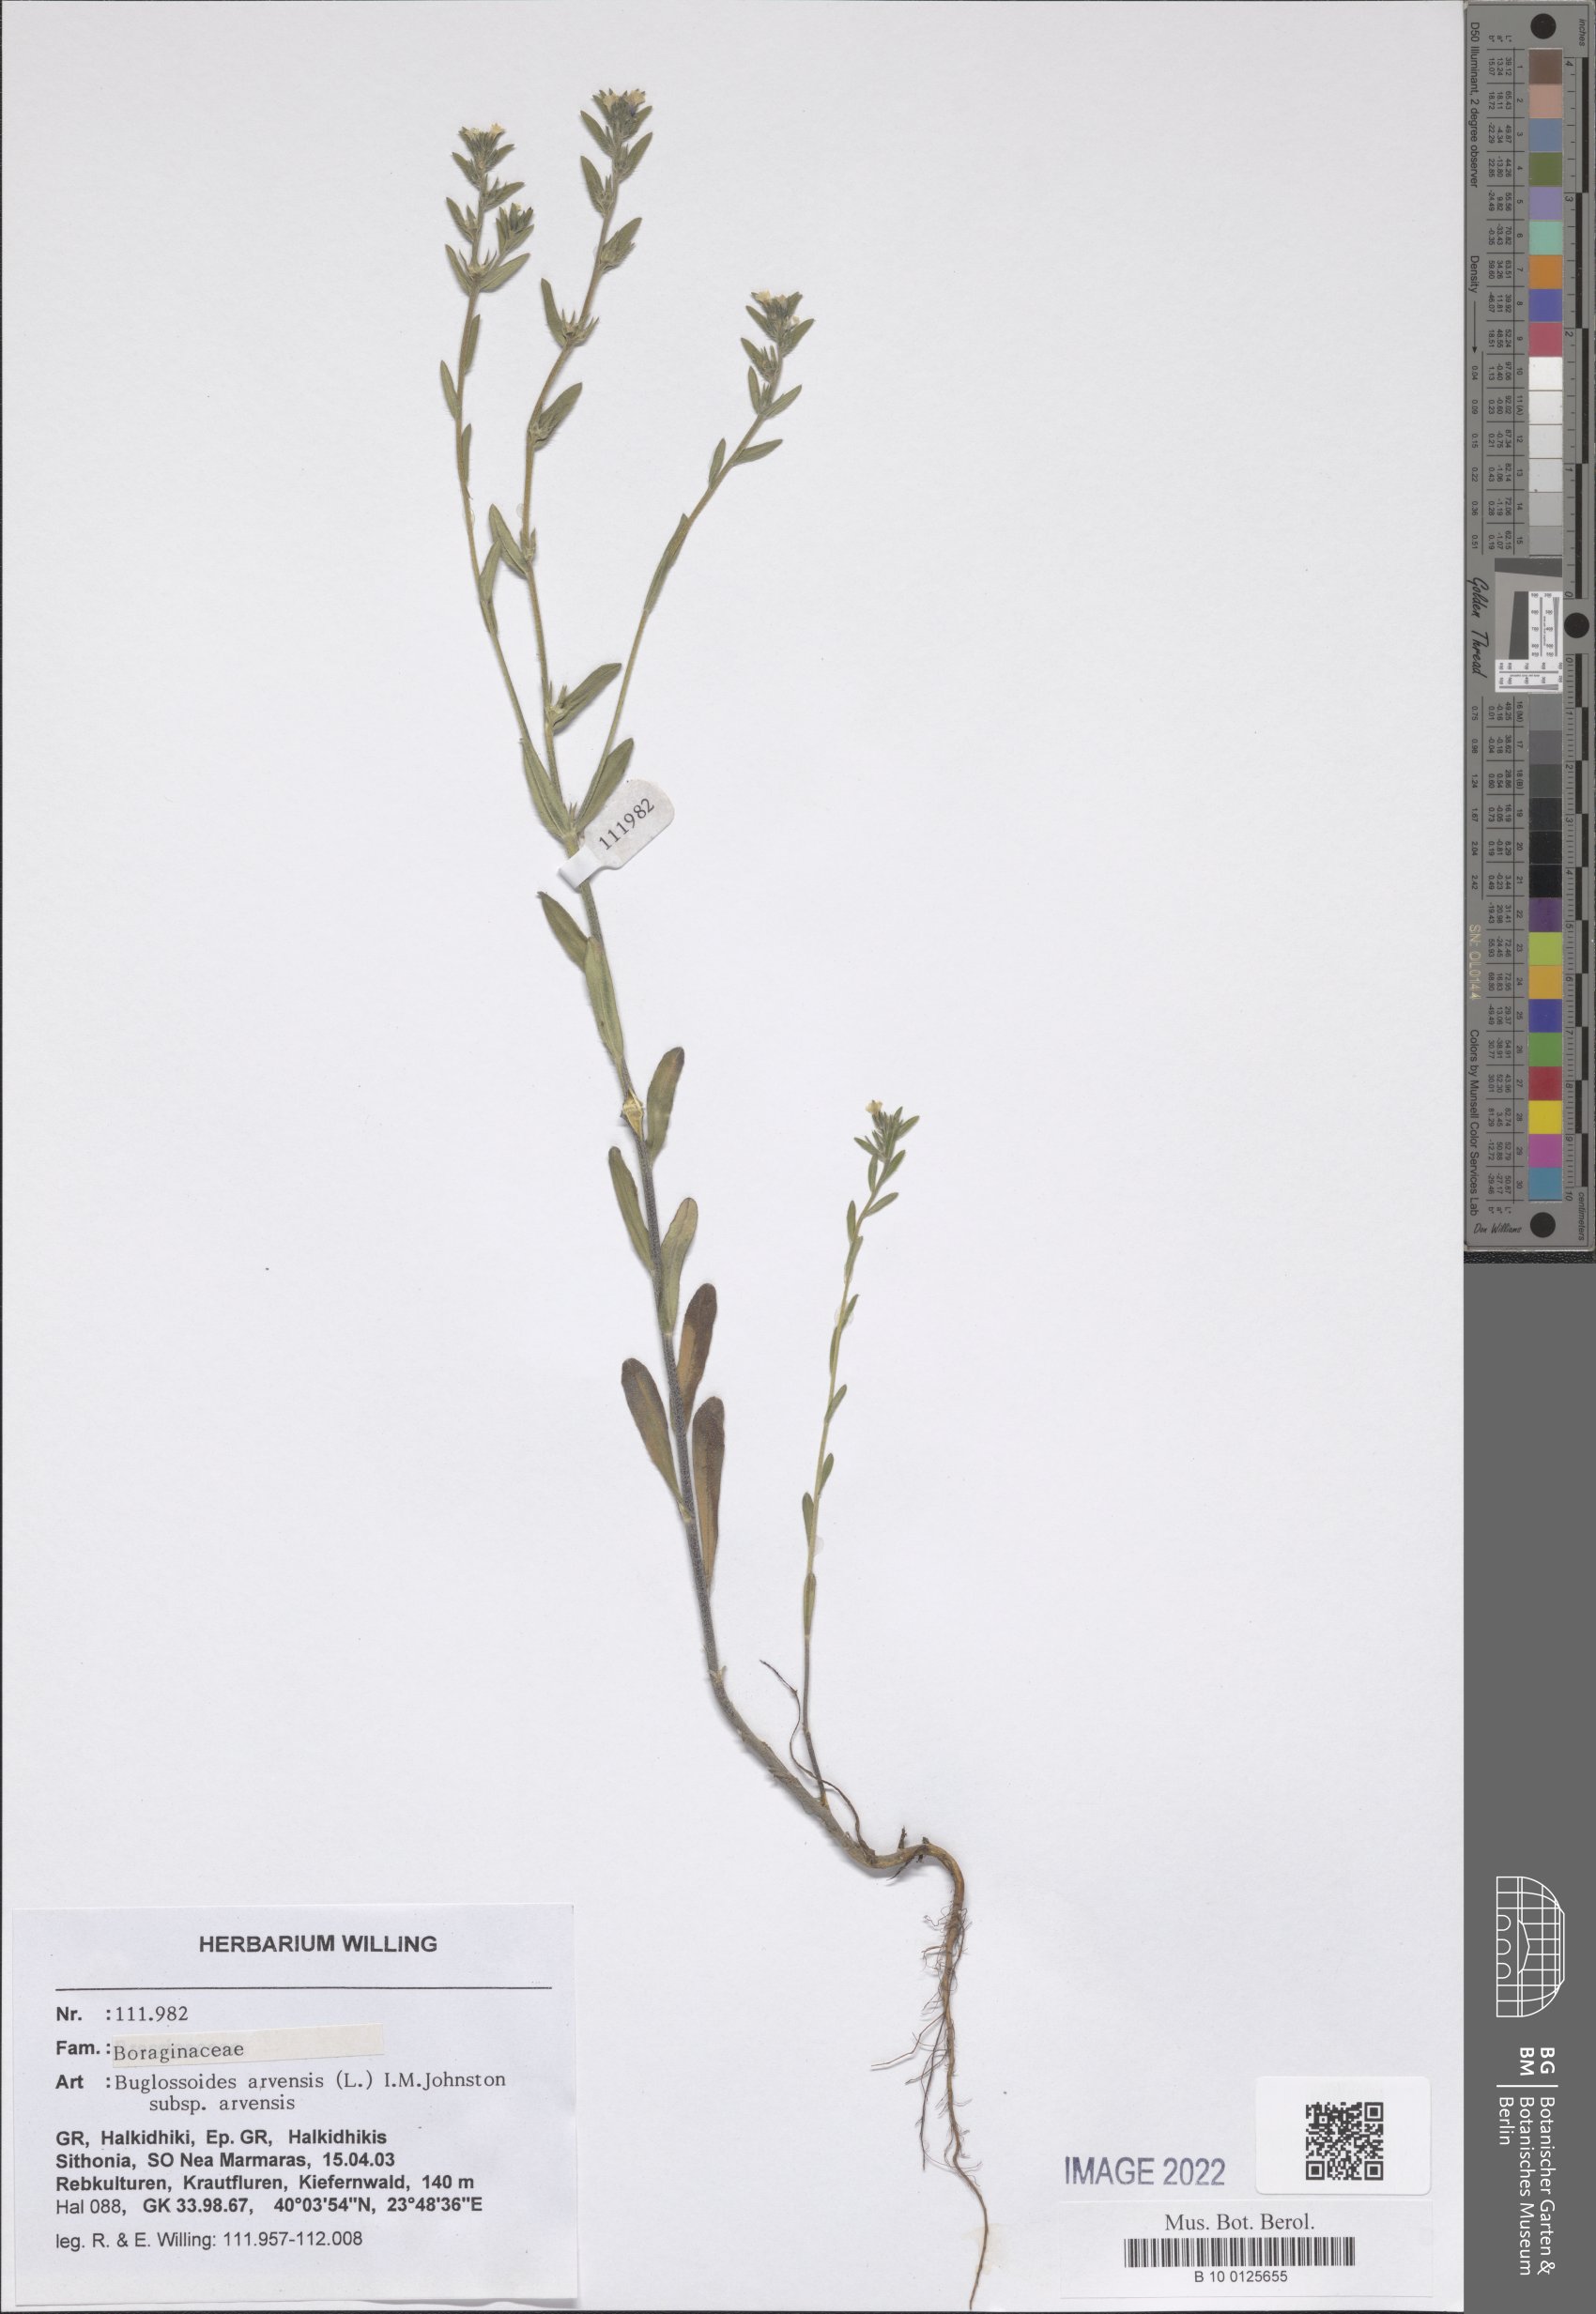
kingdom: Plantae
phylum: Tracheophyta
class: Magnoliopsida
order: Boraginales
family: Boraginaceae
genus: Buglossoides
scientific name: Buglossoides arvensis
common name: Corn gromwell
